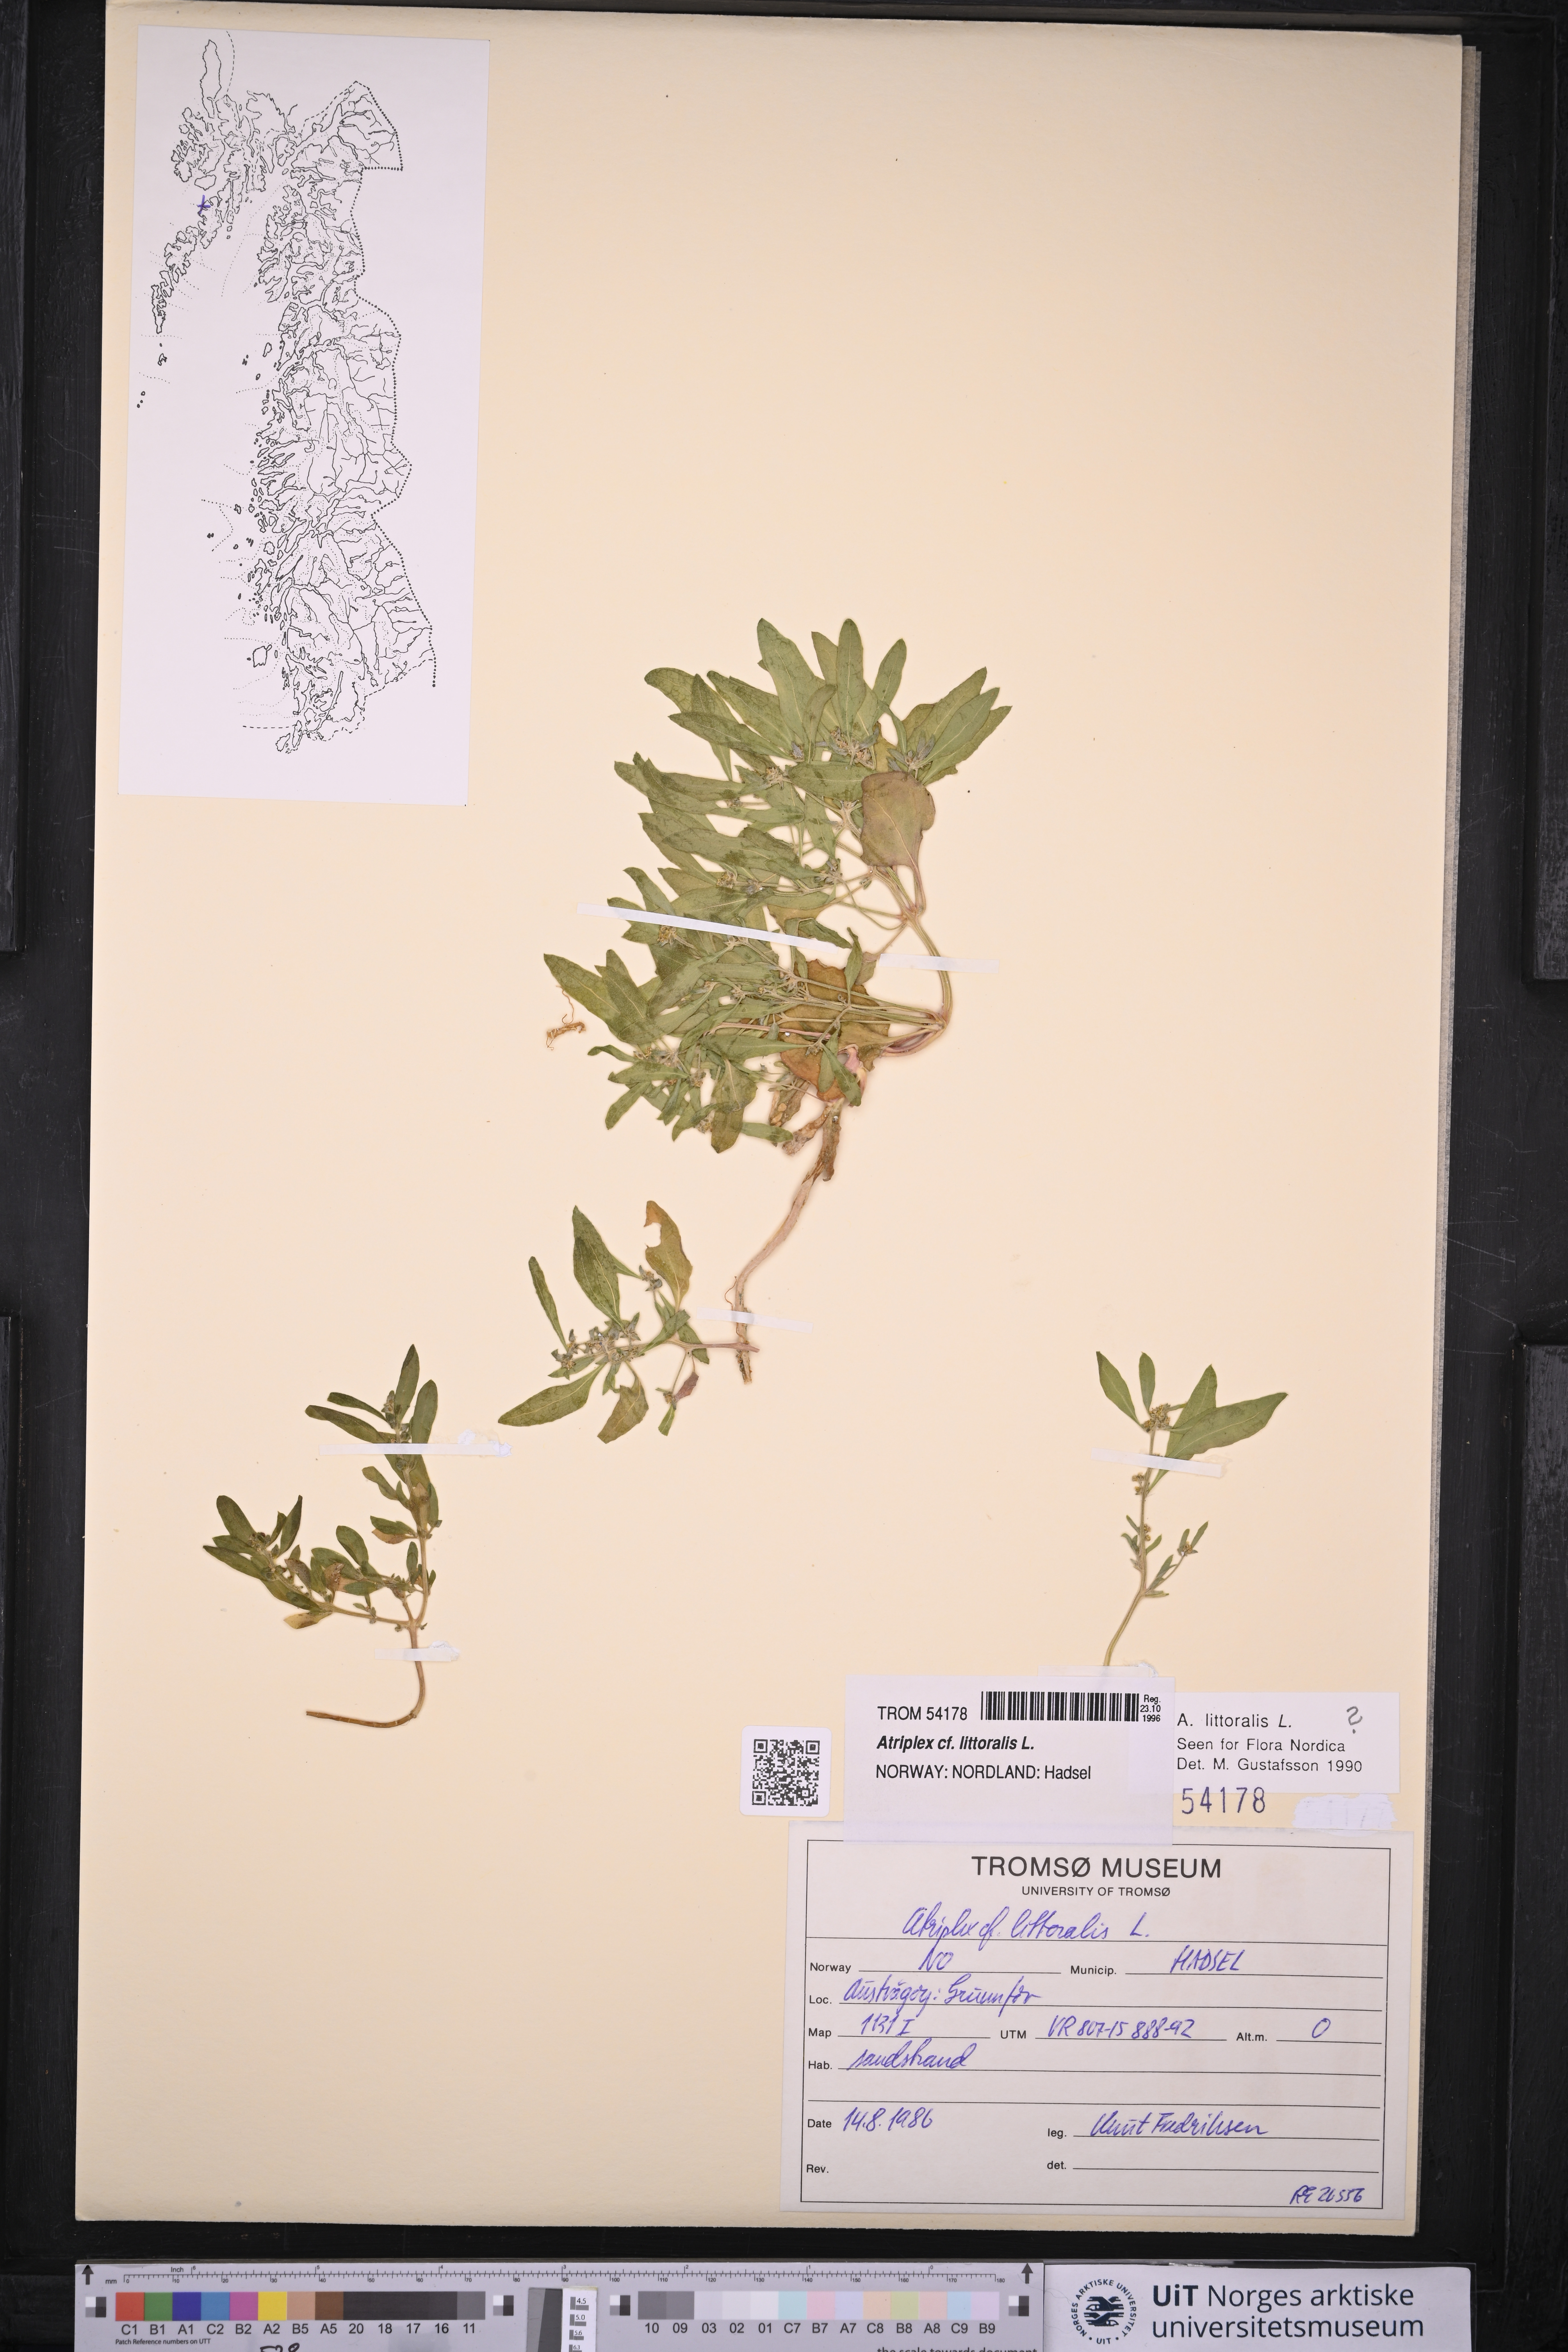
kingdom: Plantae
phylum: Tracheophyta
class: Magnoliopsida
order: Caryophyllales
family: Amaranthaceae
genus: Atriplex
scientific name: Atriplex littoralis
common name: Grass-leaved orache
